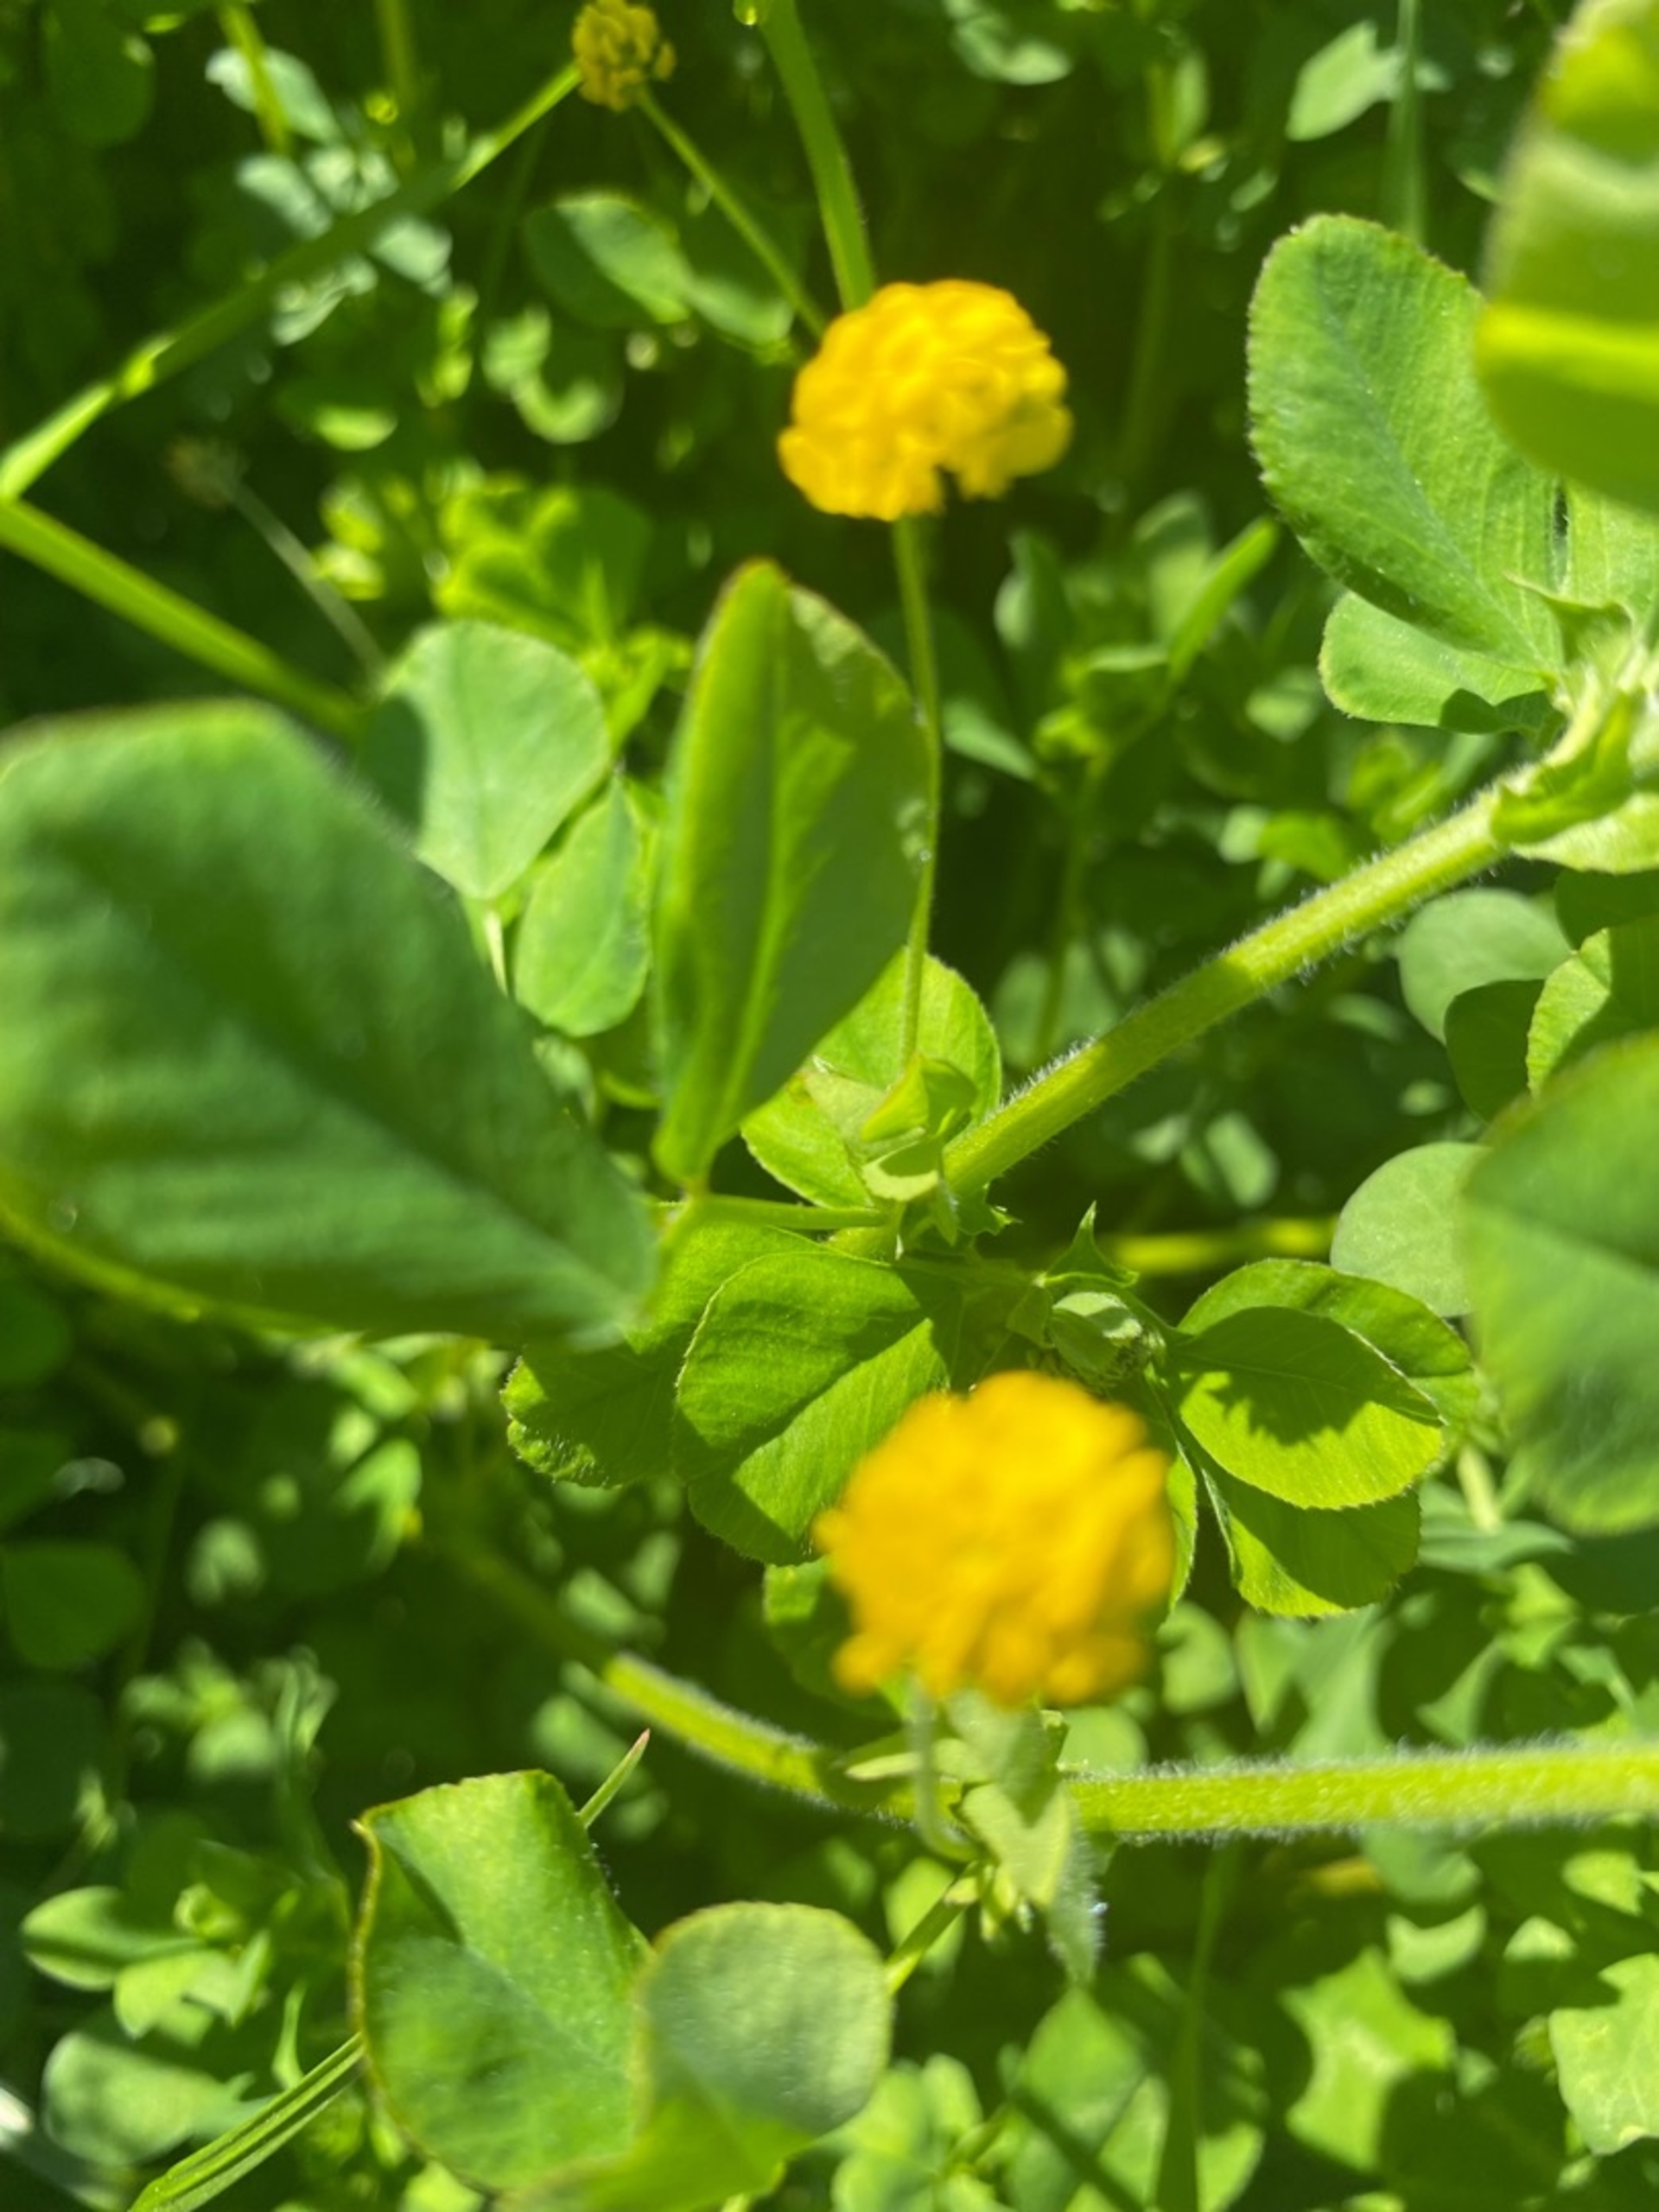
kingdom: Plantae
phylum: Tracheophyta
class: Magnoliopsida
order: Fabales
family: Fabaceae
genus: Medicago
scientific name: Medicago lupulina
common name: Humle-sneglebælg
